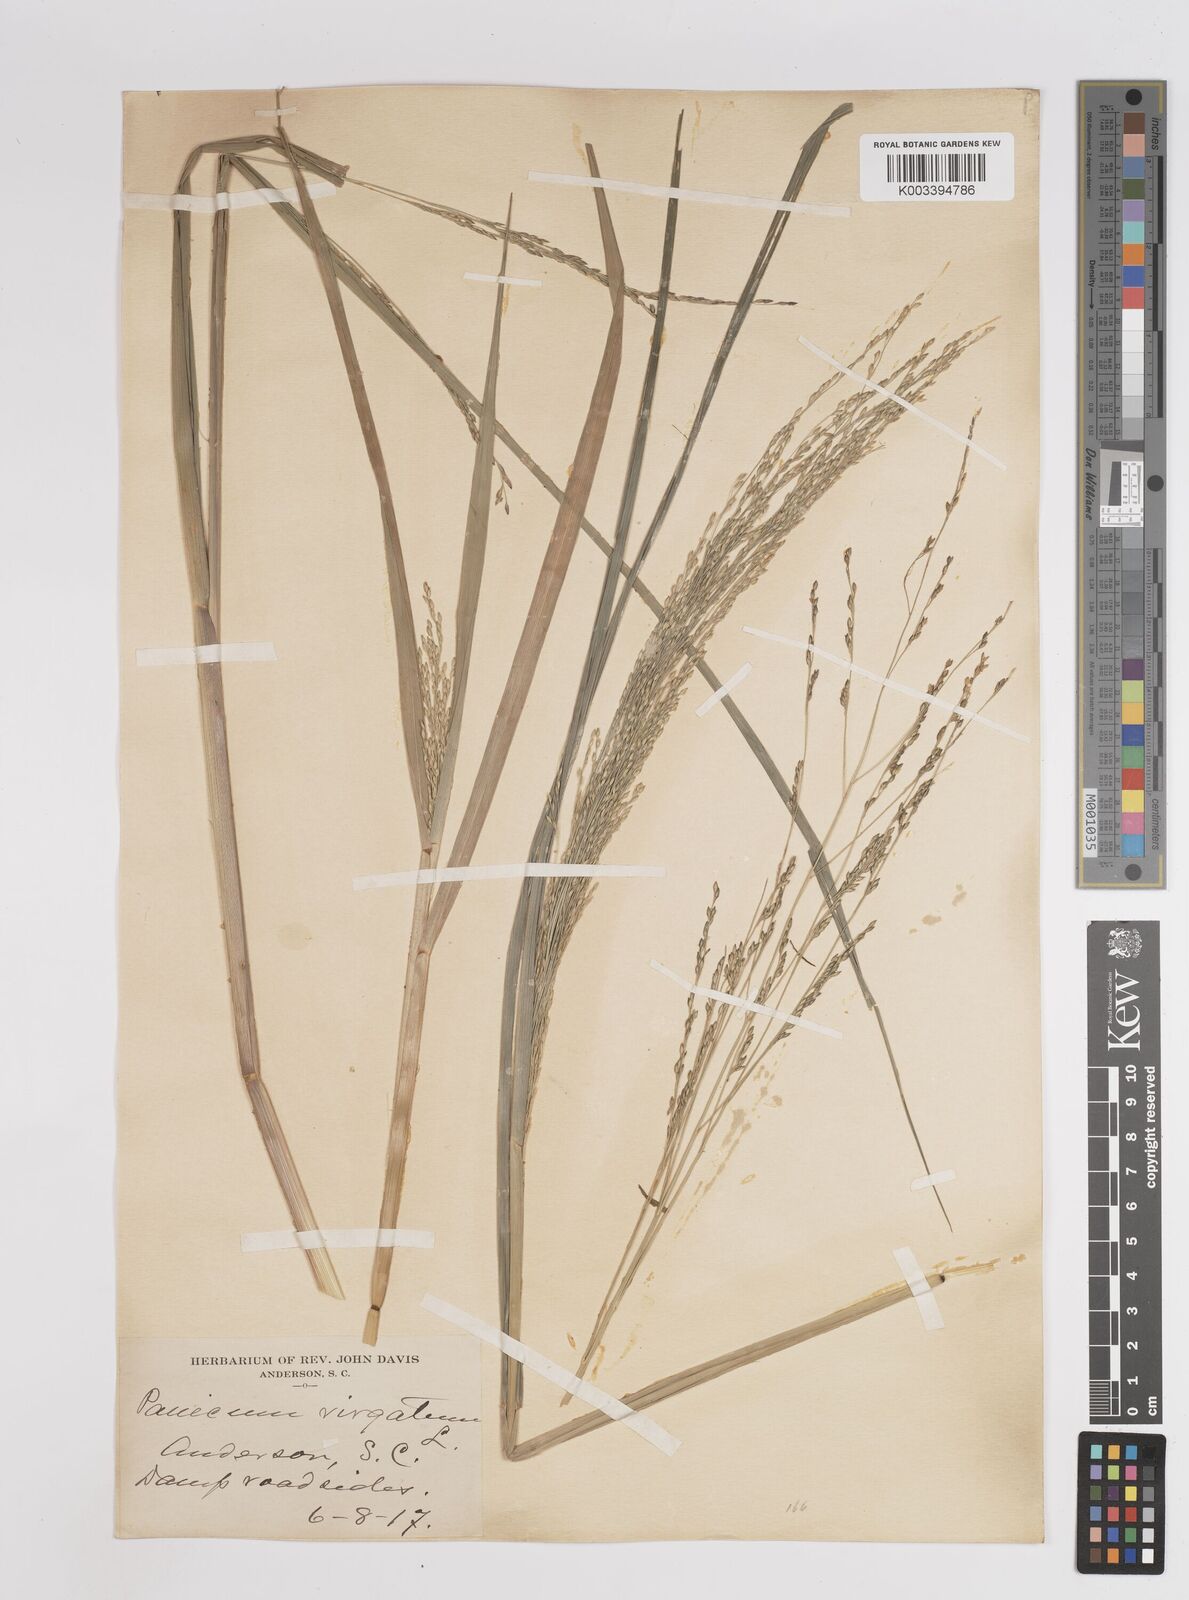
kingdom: Plantae
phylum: Tracheophyta
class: Liliopsida
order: Poales
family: Poaceae
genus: Panicum
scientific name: Panicum virgatum
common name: Switchgrass
